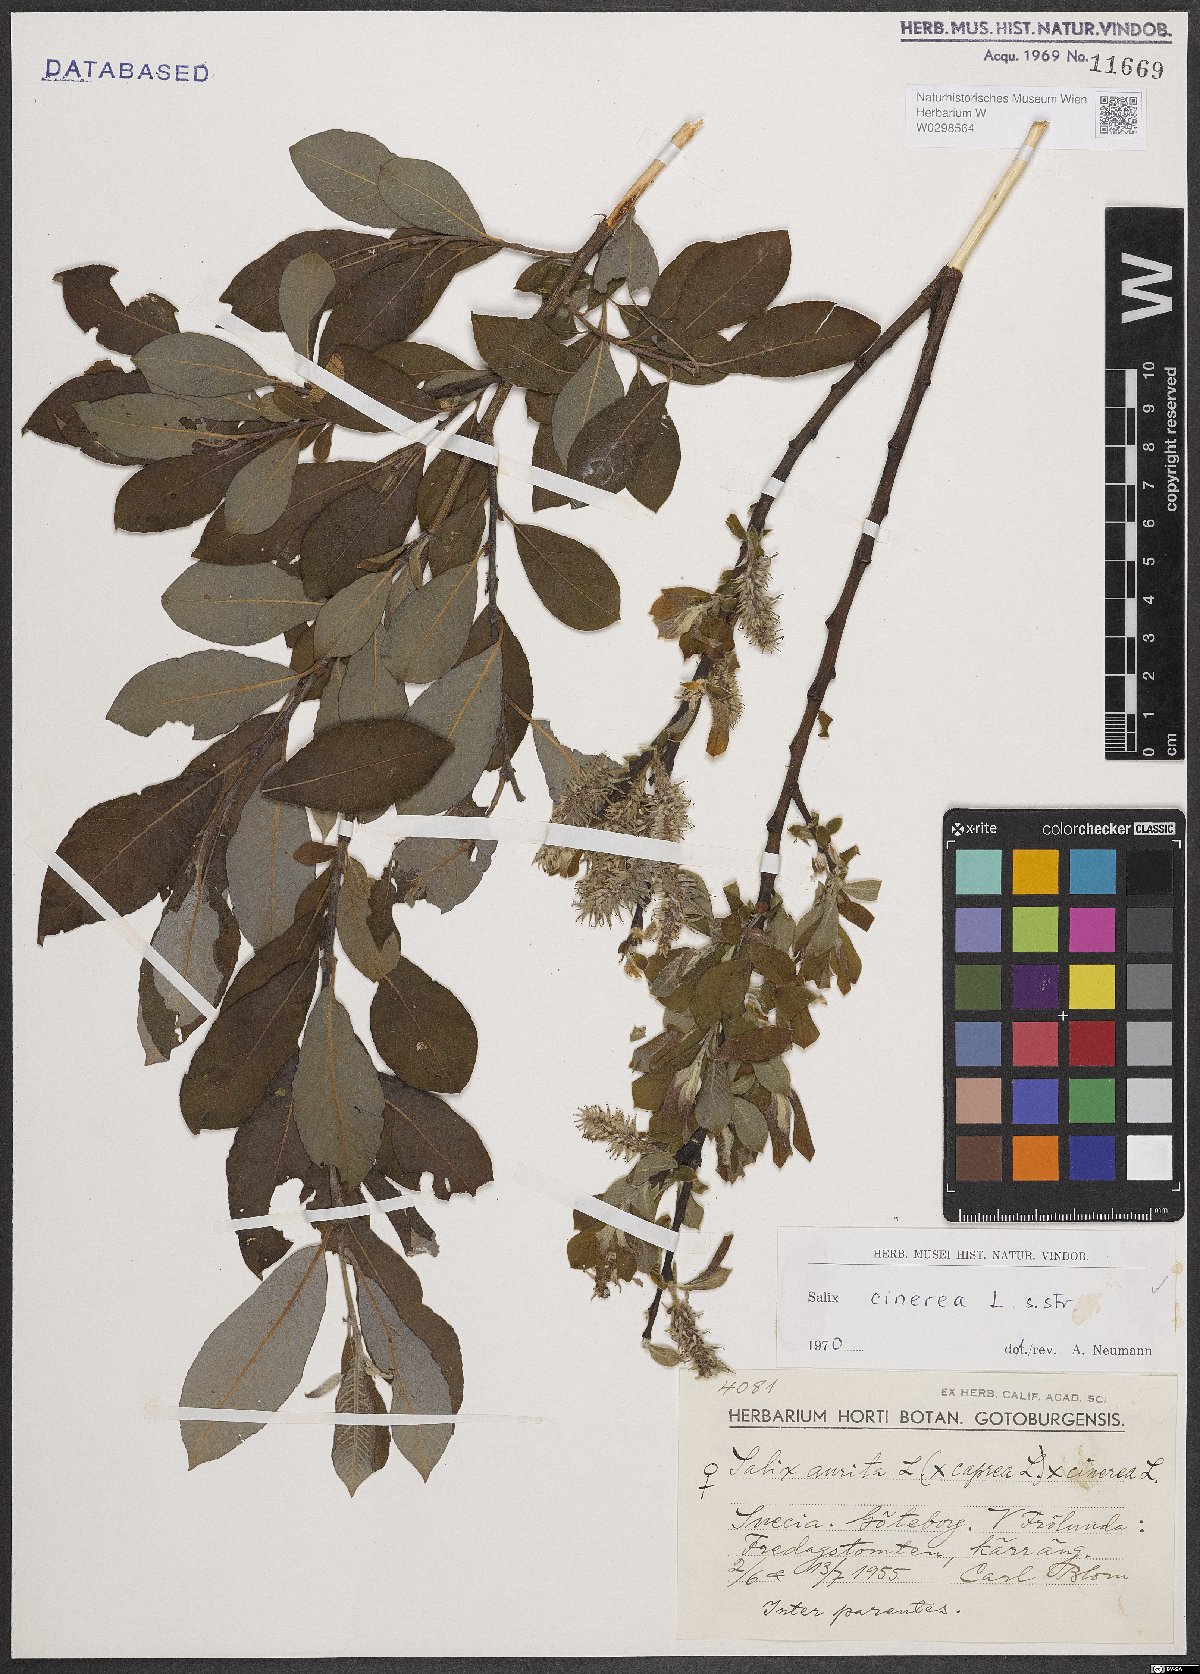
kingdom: Plantae
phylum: Tracheophyta
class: Magnoliopsida
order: Malpighiales
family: Salicaceae
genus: Salix
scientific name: Salix cinerea
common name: Common sallow
